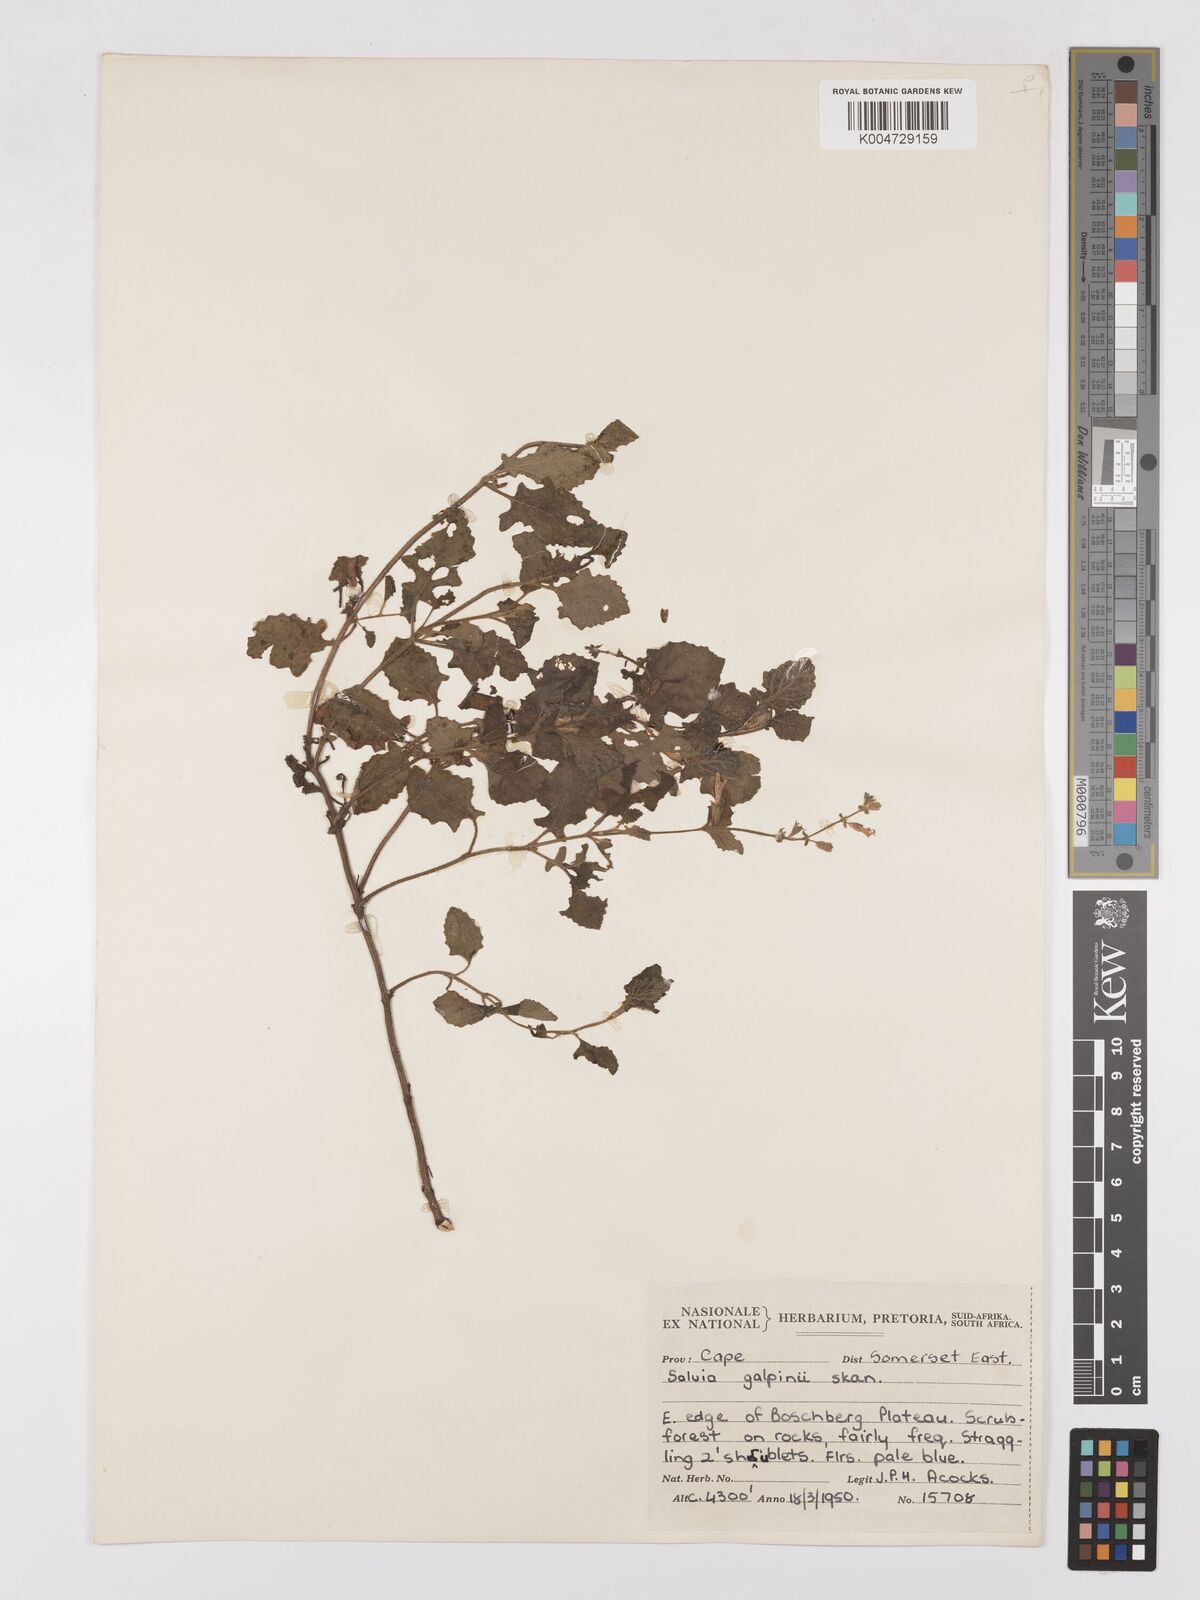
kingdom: Plantae
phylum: Tracheophyta
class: Magnoliopsida
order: Lamiales
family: Lamiaceae
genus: Salvia
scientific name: Salvia aurita
